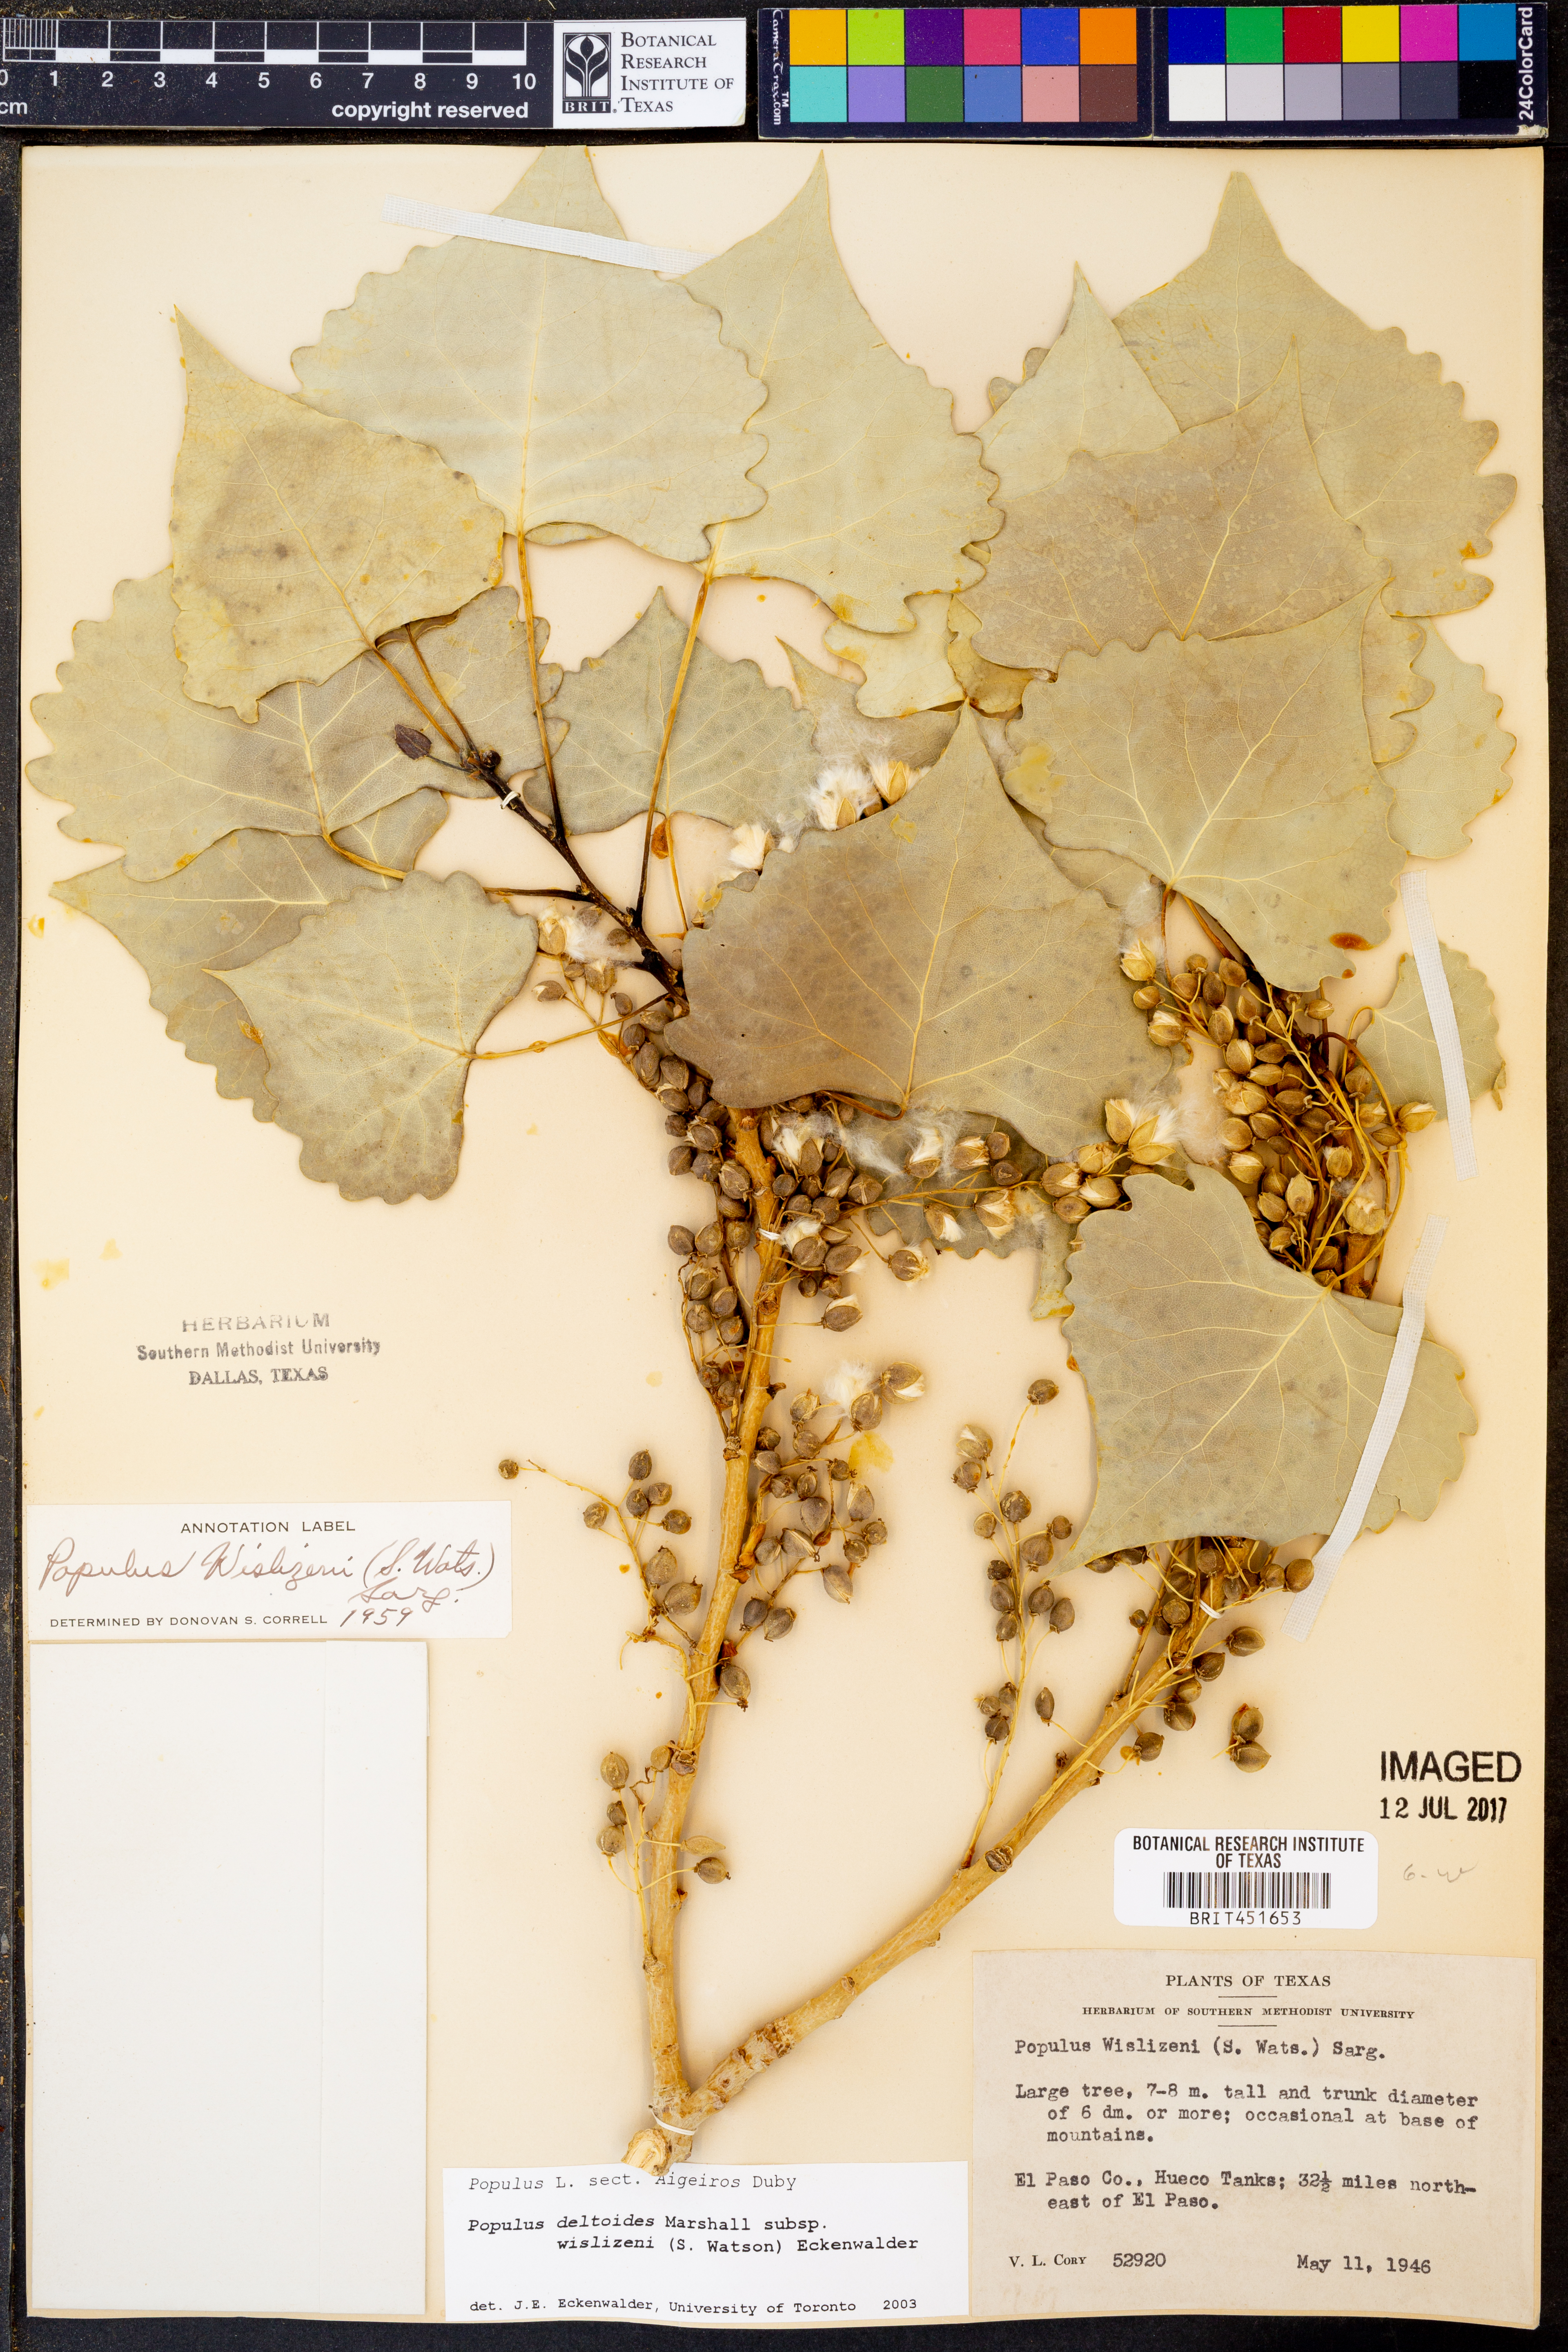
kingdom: Plantae
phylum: Tracheophyta
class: Magnoliopsida
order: Malpighiales
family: Salicaceae
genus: Populus
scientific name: Populus deltoides
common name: Eastern cottonwood
